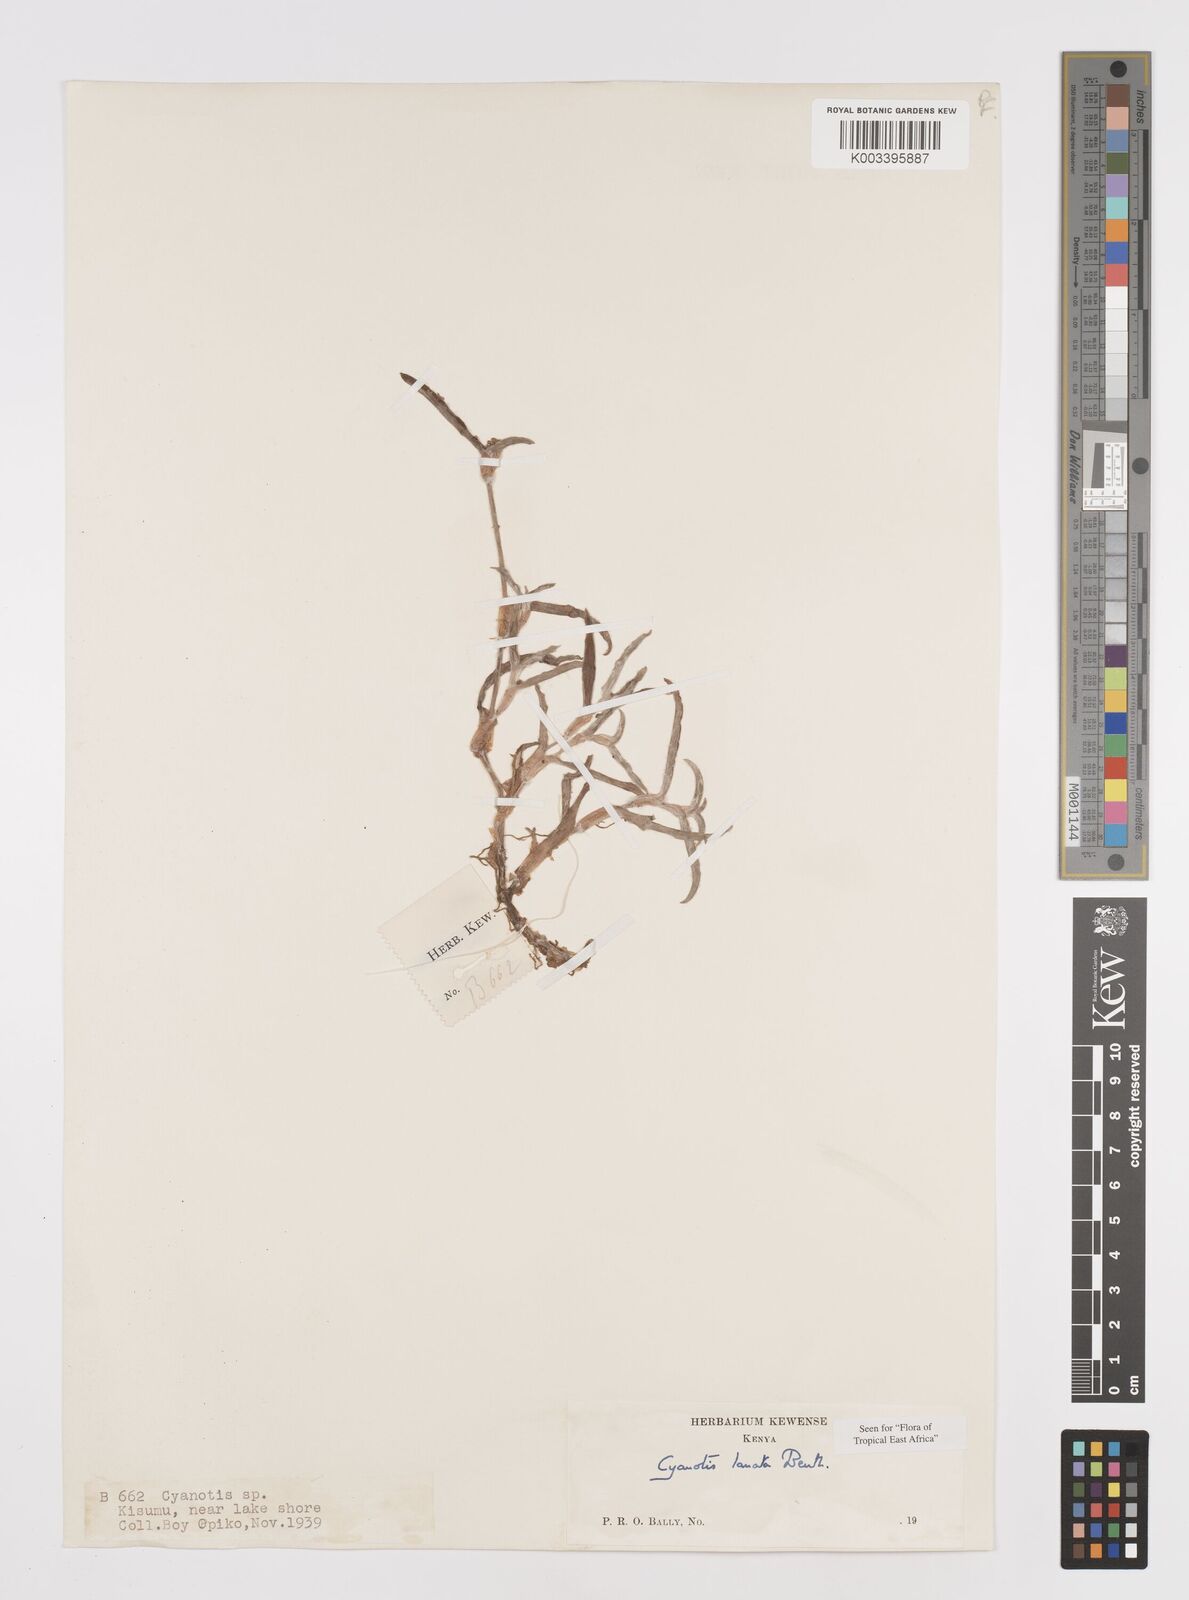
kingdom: Plantae
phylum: Tracheophyta
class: Liliopsida
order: Commelinales
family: Commelinaceae
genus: Cyanotis
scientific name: Cyanotis lanata
